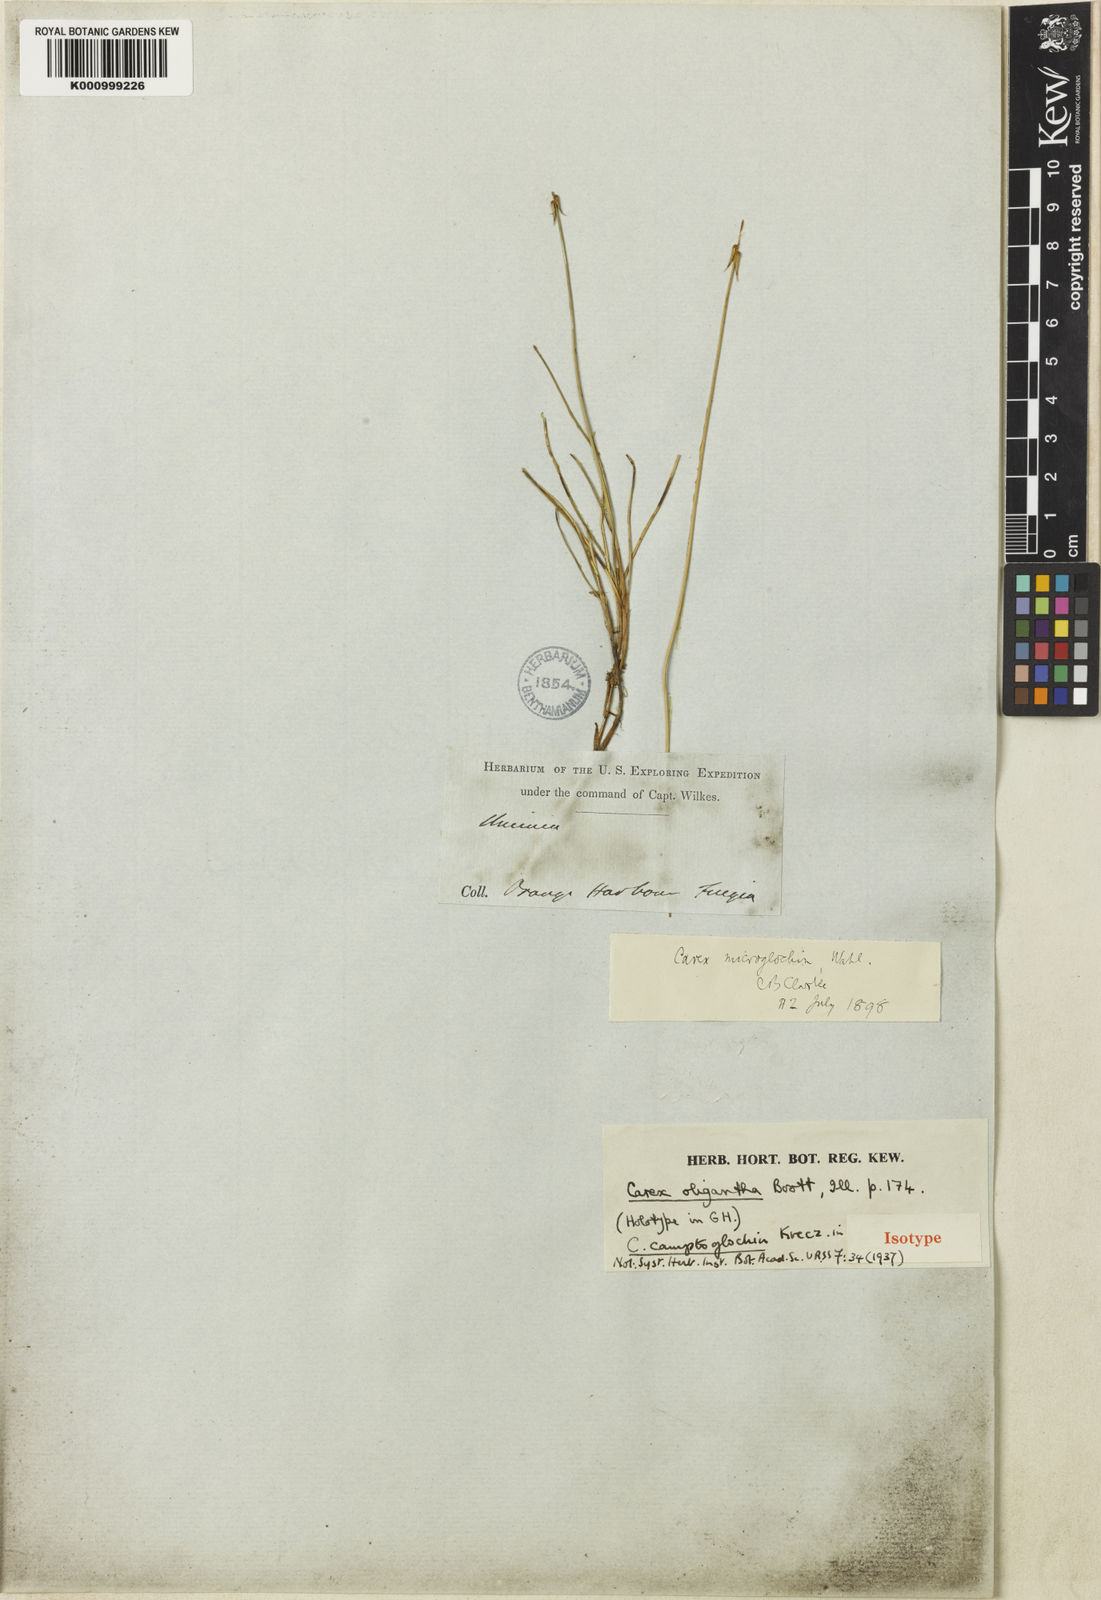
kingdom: Plantae
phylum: Tracheophyta
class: Liliopsida
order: Poales
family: Cyperaceae
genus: Carex
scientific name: Carex microglochin
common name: Bristle sedge
